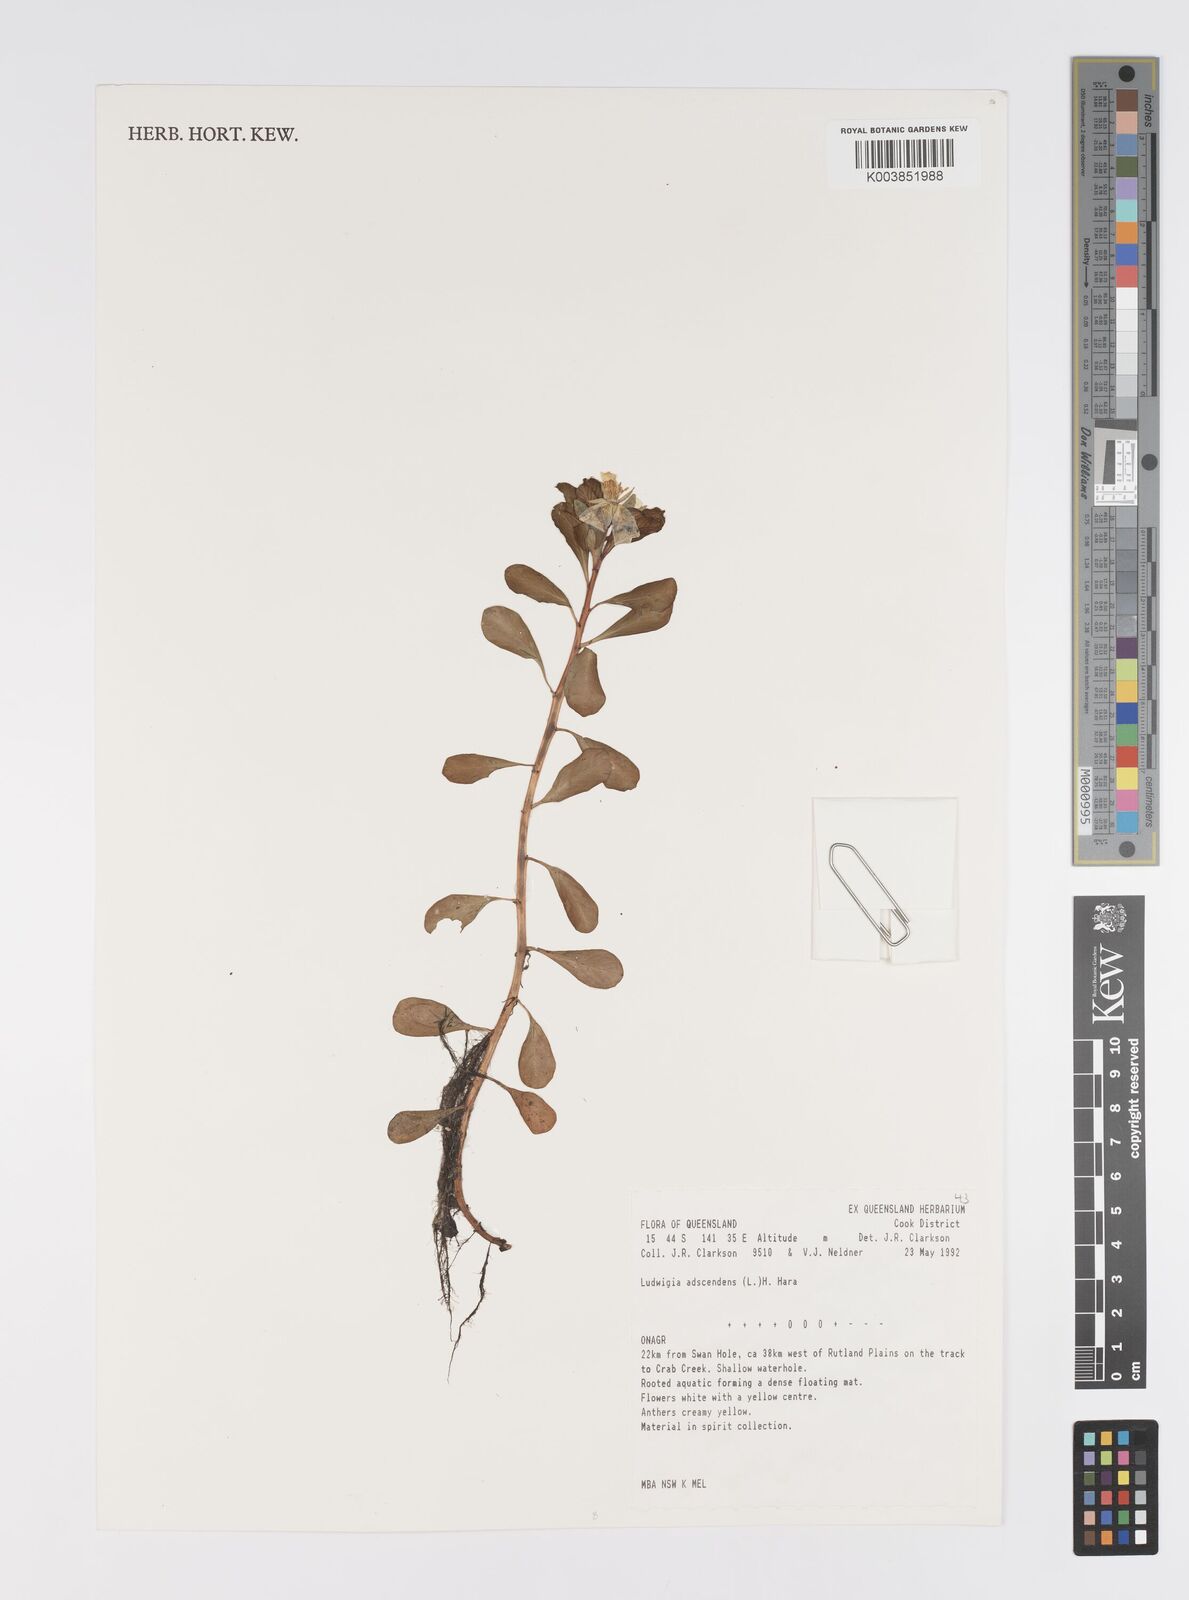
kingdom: Plantae
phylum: Tracheophyta
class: Magnoliopsida
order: Myrtales
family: Onagraceae
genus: Ludwigia
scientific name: Ludwigia adscendens
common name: Creeping water primrose
